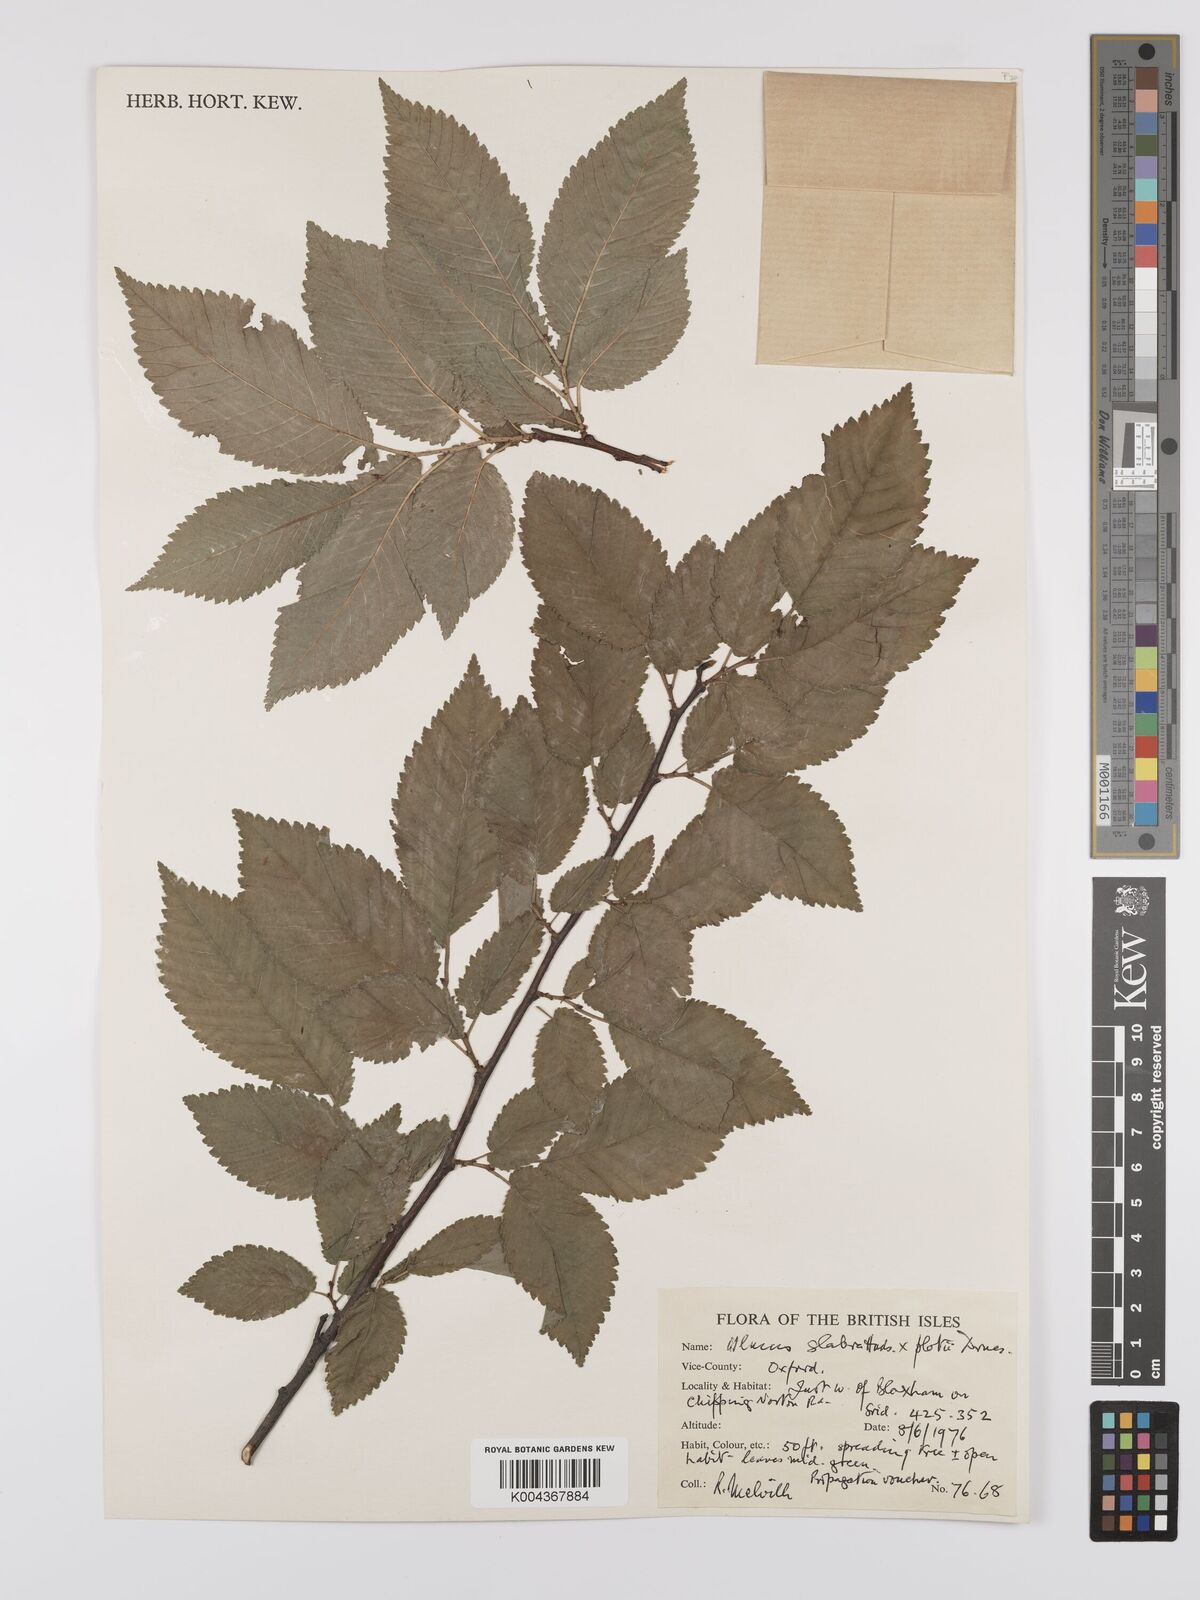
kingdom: Plantae
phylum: Tracheophyta
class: Magnoliopsida
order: Rosales
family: Ulmaceae
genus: Ulmus
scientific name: Ulmus glabra
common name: Wych elm
